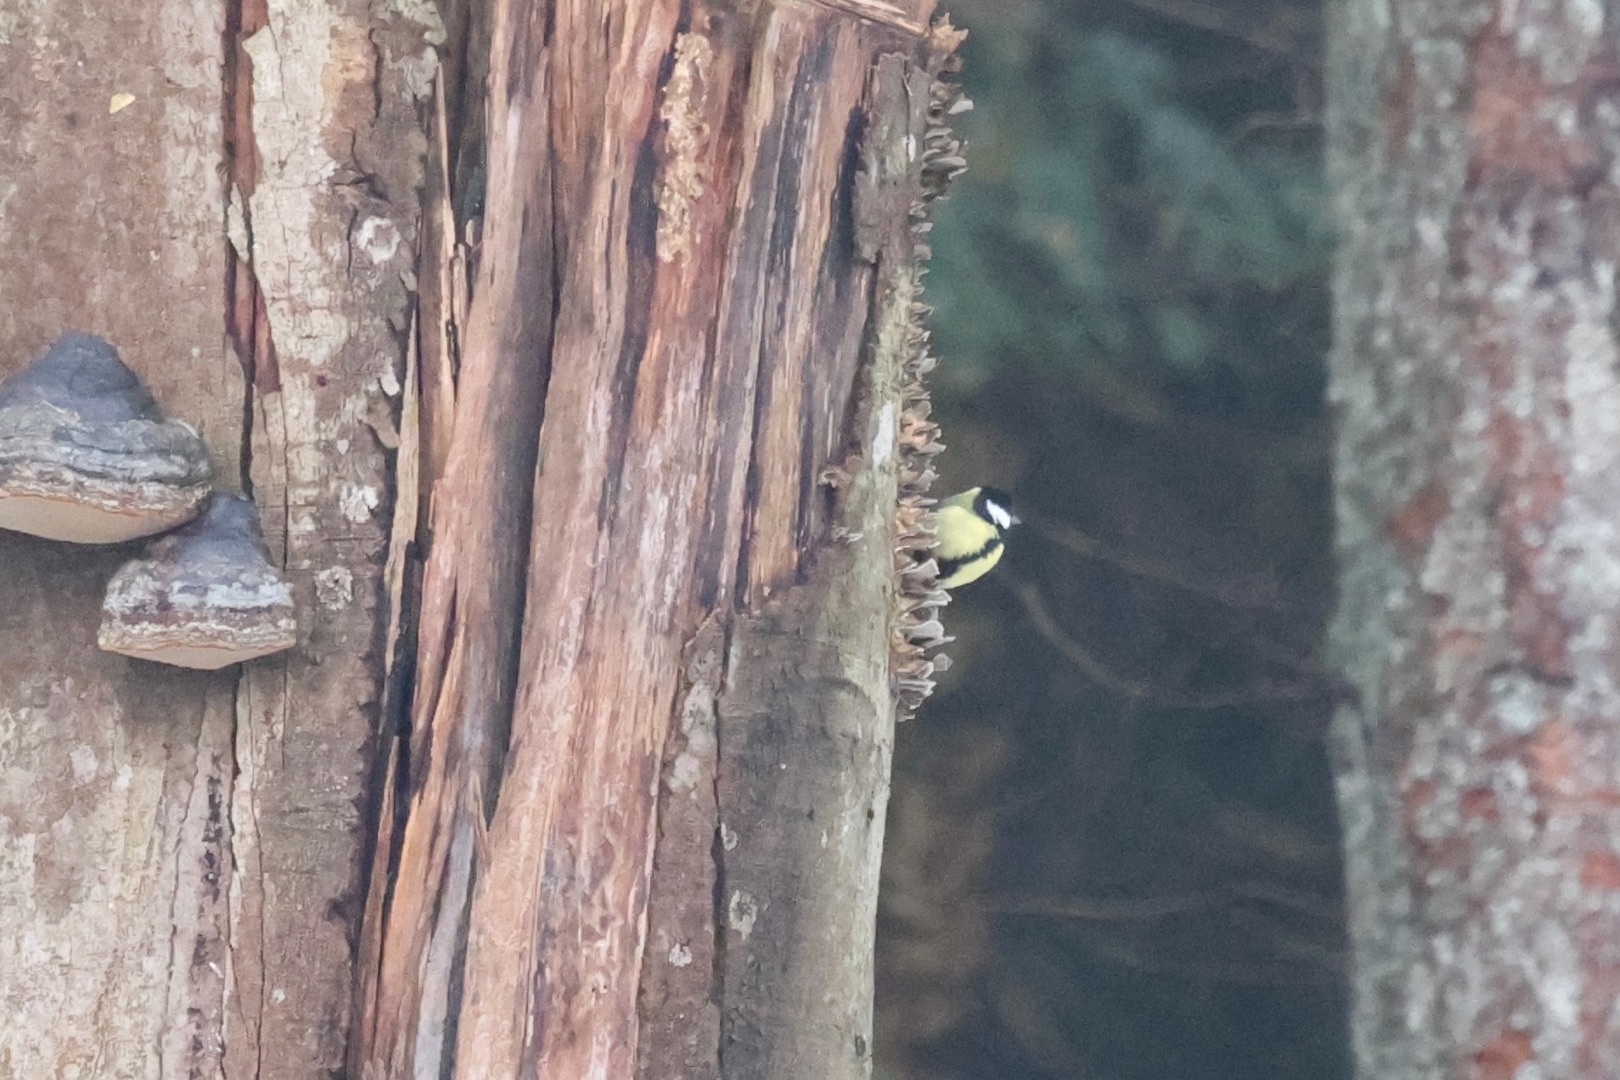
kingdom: Animalia
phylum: Chordata
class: Aves
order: Passeriformes
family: Paridae
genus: Parus
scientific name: Parus major
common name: Musvit
